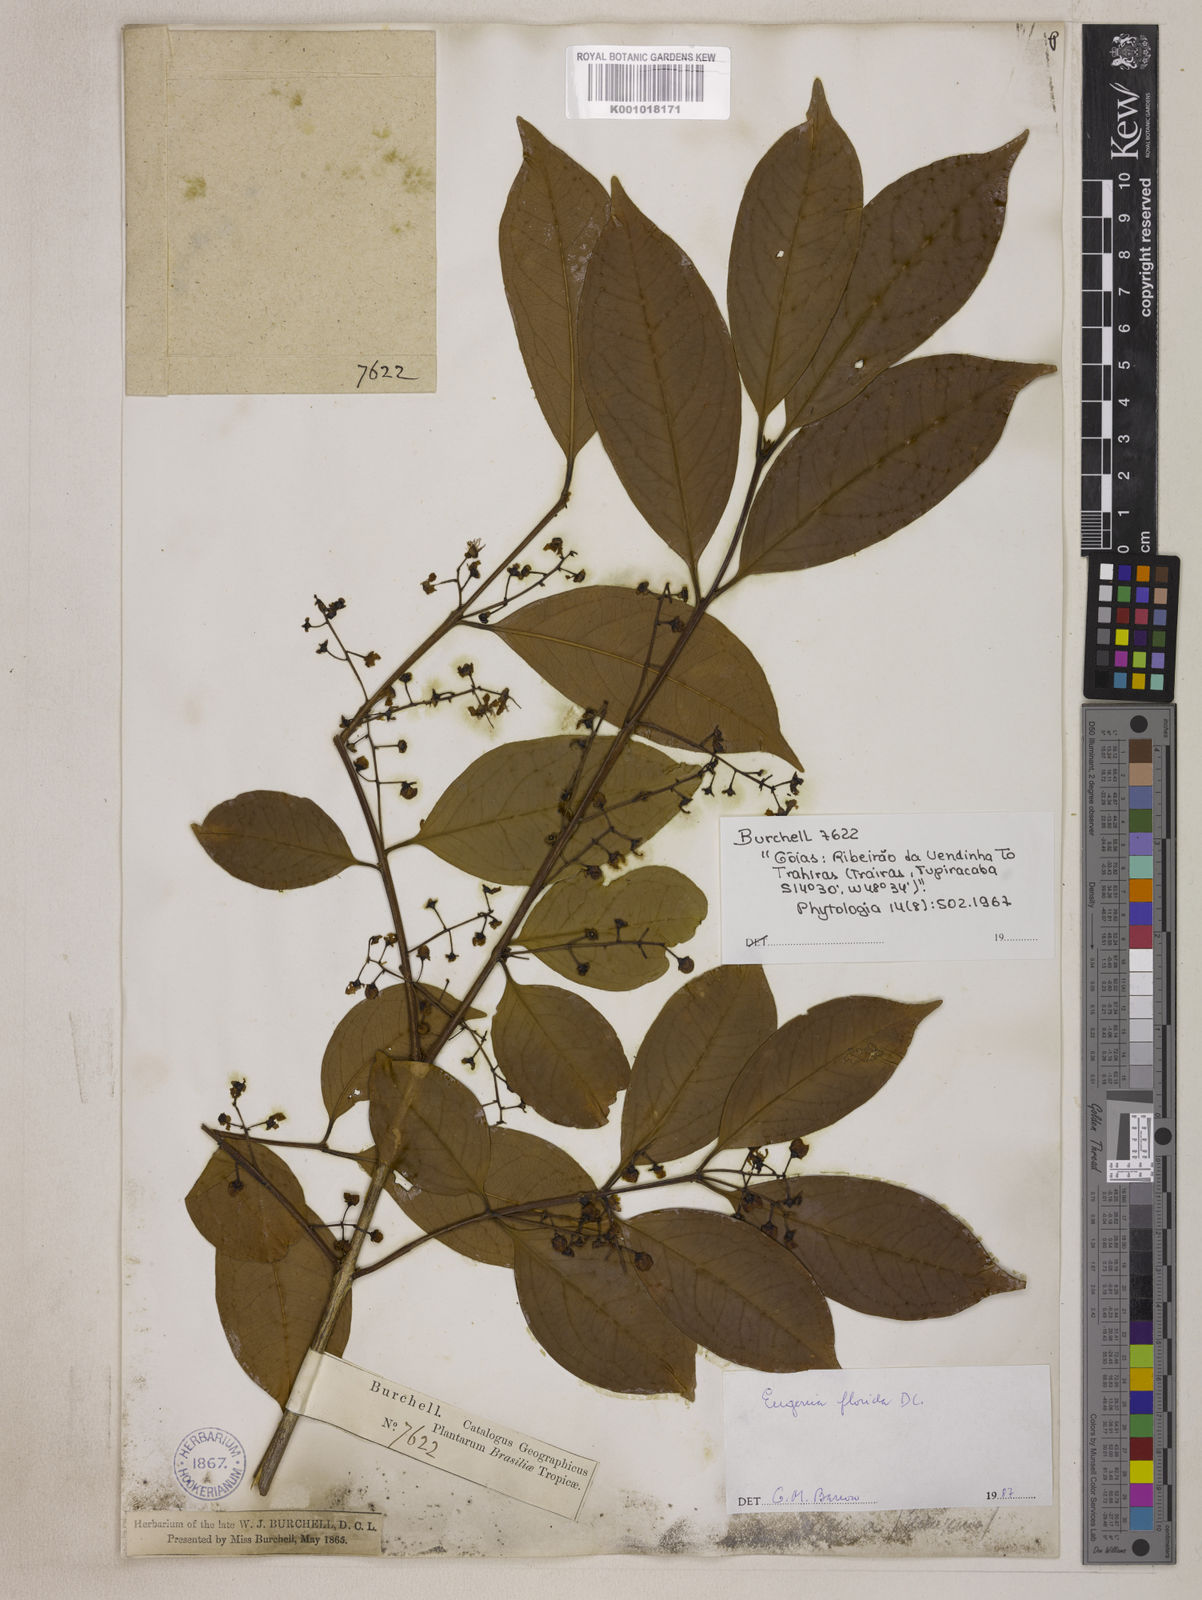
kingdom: Plantae
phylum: Tracheophyta
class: Magnoliopsida
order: Myrtales
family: Myrtaceae
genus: Eugenia
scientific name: Eugenia florida
